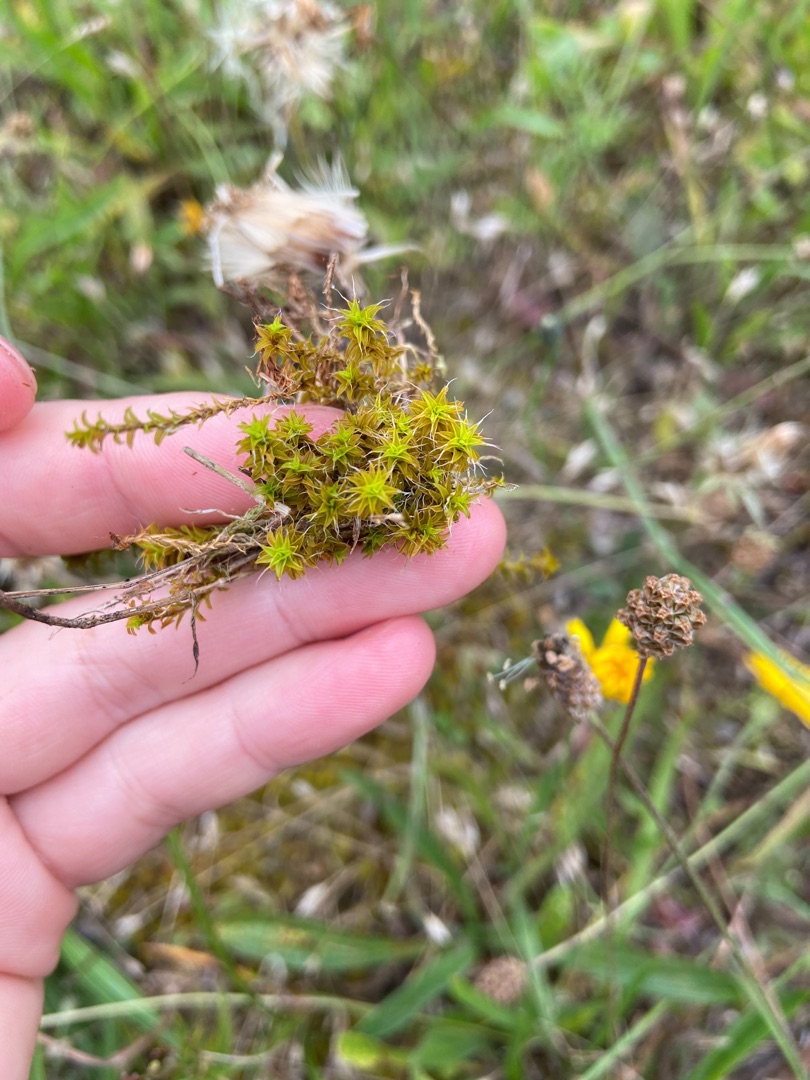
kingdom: Plantae
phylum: Bryophyta
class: Bryopsida
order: Pottiales
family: Pottiaceae
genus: Syntrichia
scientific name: Syntrichia ruralis
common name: Spidsbladet hårstjerne
